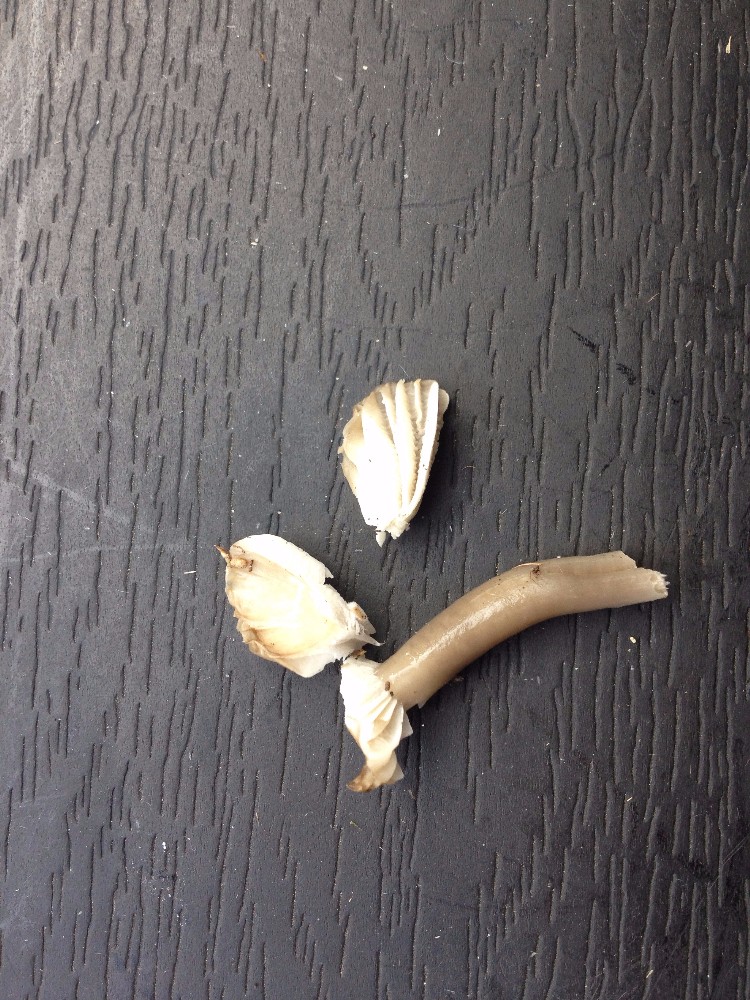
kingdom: Fungi
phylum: Basidiomycota
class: Agaricomycetes
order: Agaricales
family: Hygrophoraceae
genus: Gliophorus
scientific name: Gliophorus irrigatus
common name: slimet vokshat
